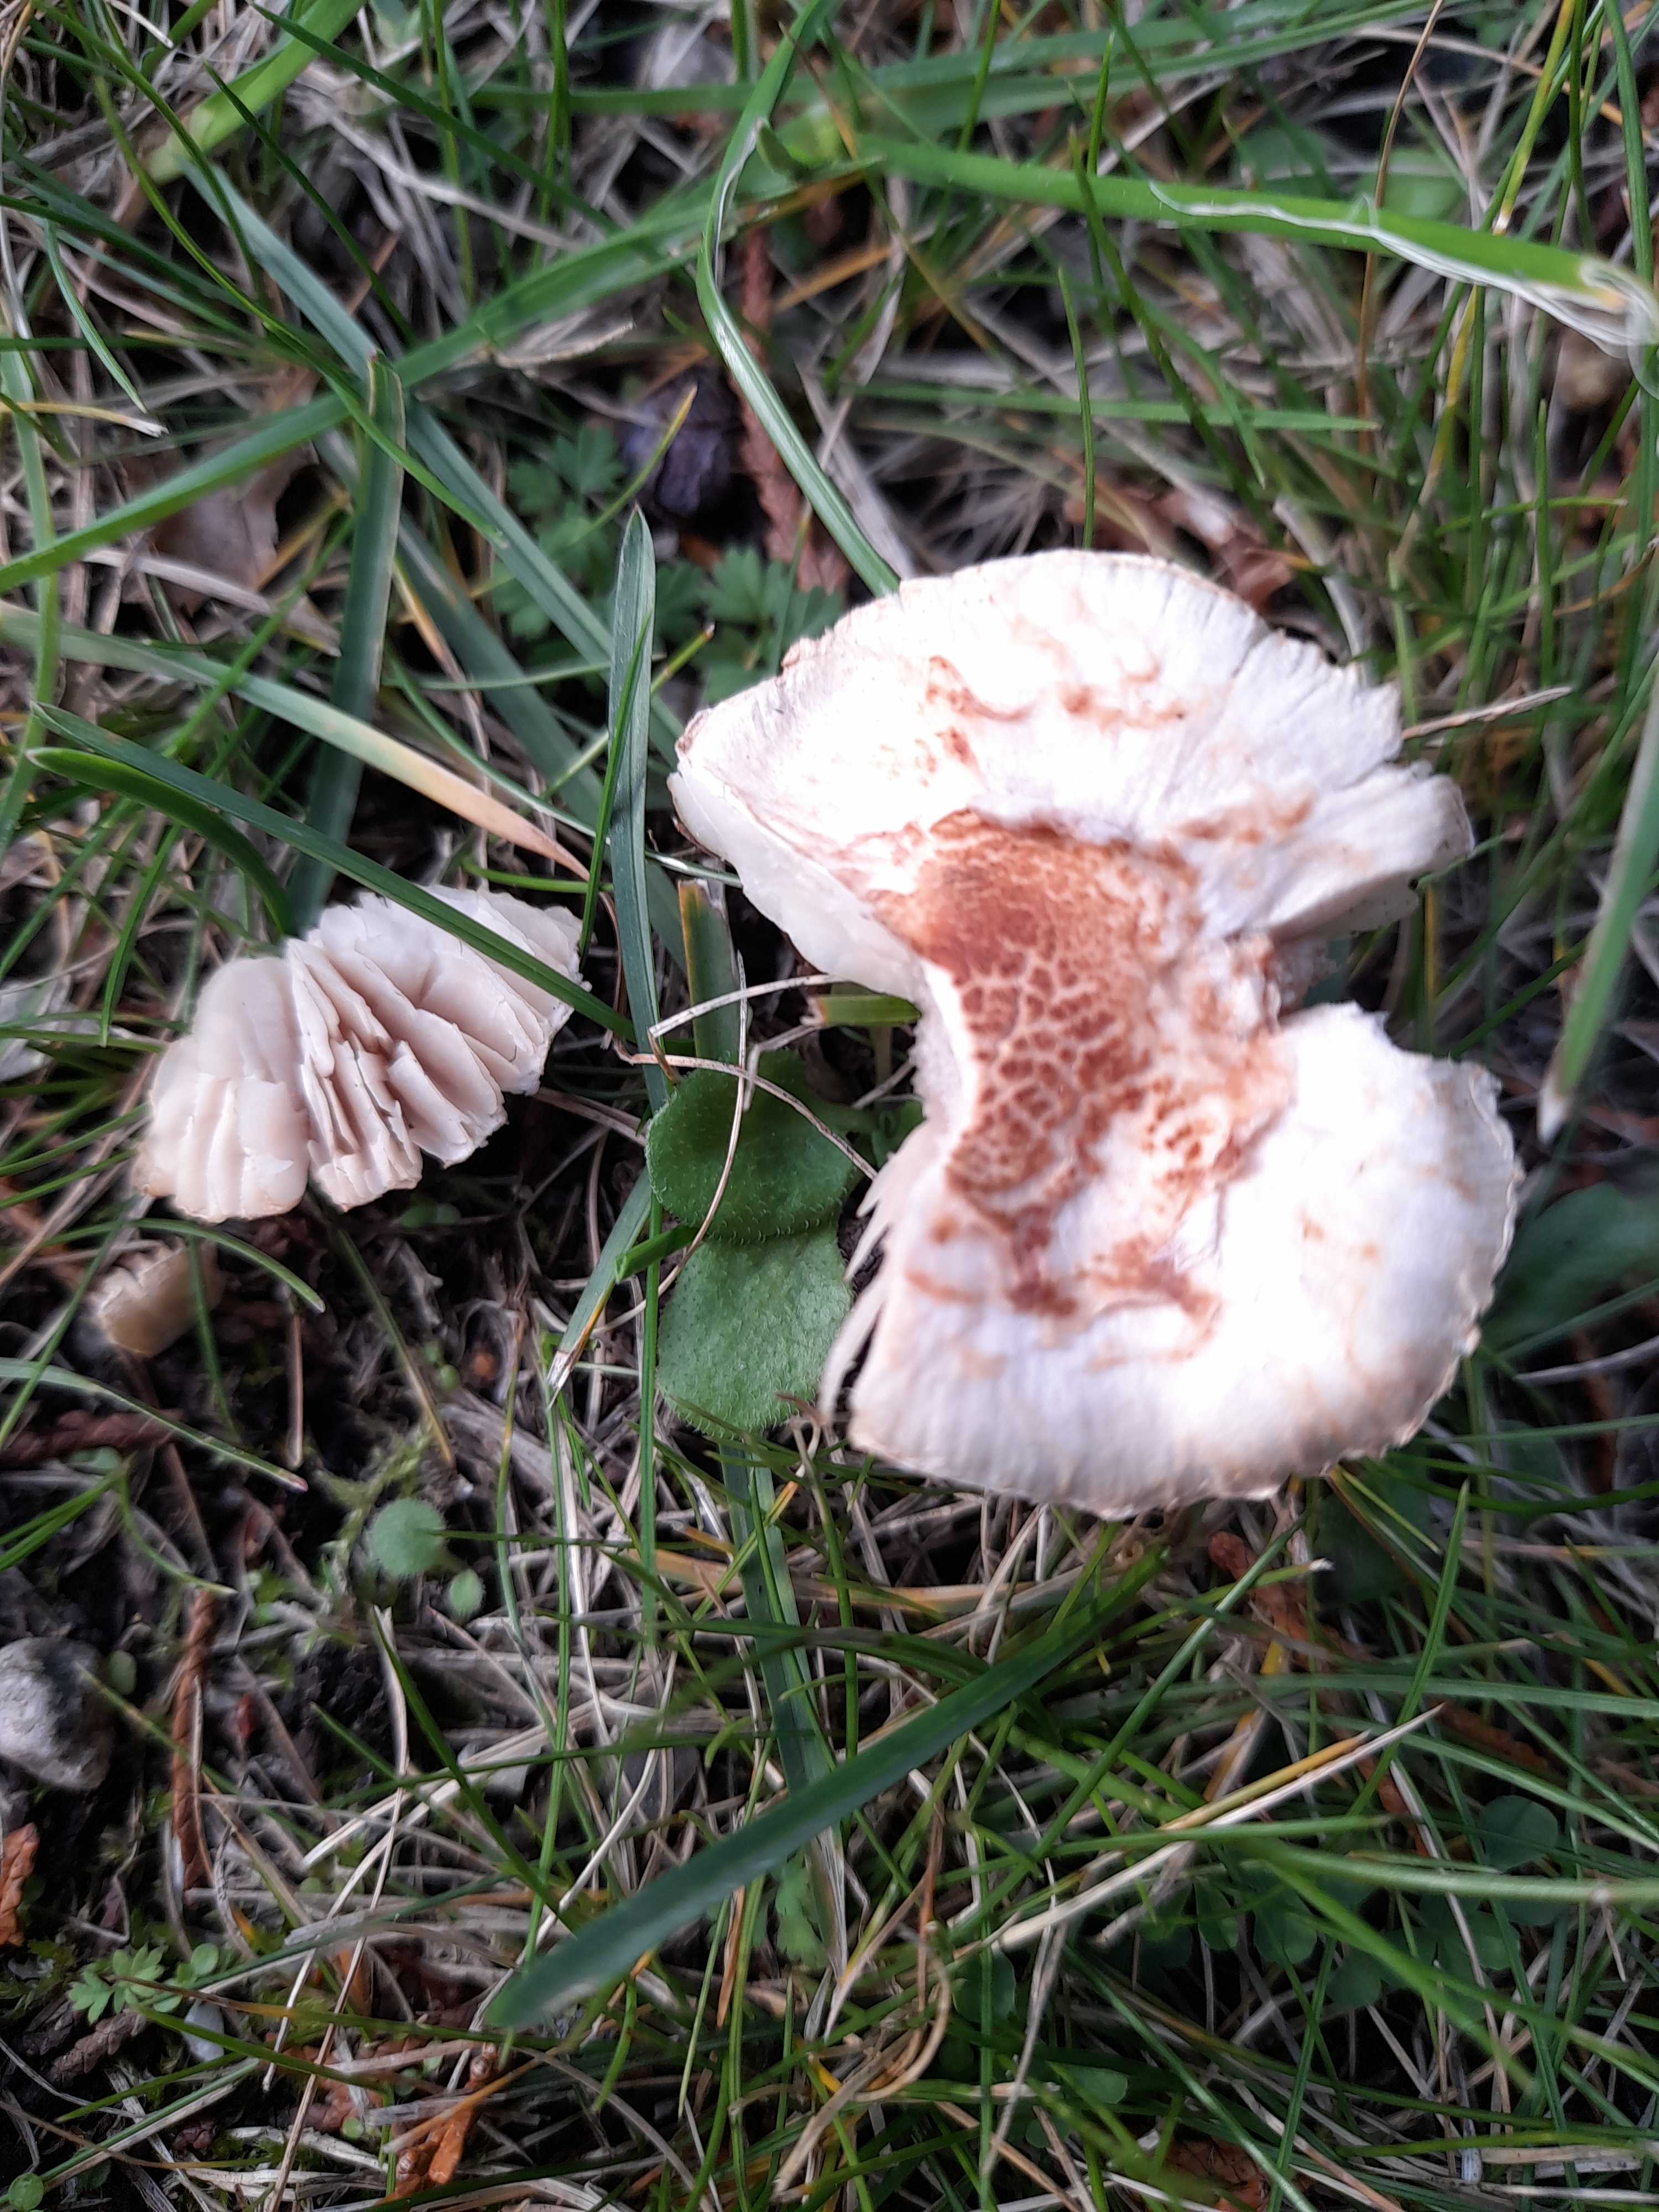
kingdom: Fungi
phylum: Basidiomycota
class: Agaricomycetes
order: Agaricales
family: Agaricaceae
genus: Lepiota
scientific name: Lepiota cristata
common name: stinkende parasolhat
